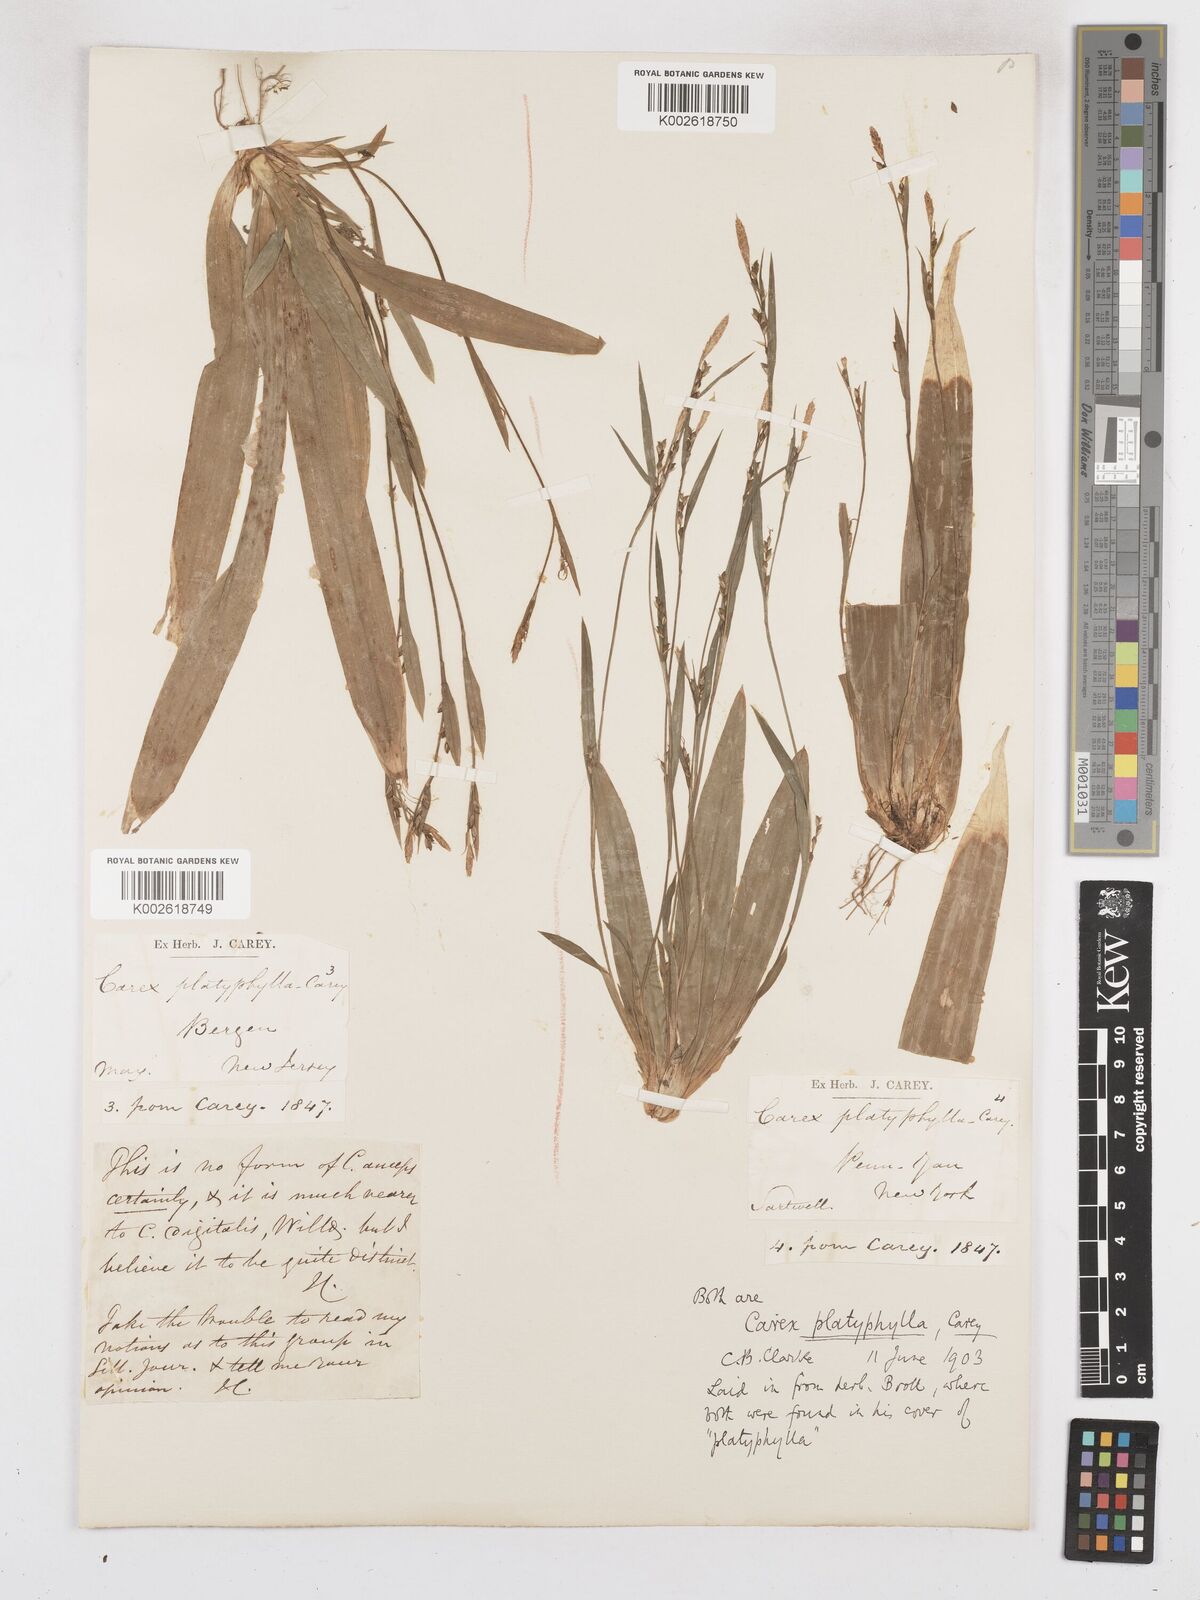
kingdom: Plantae
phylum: Tracheophyta
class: Liliopsida
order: Poales
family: Cyperaceae
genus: Carex
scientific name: Carex platyphylla
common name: Broad-leaved sedge
